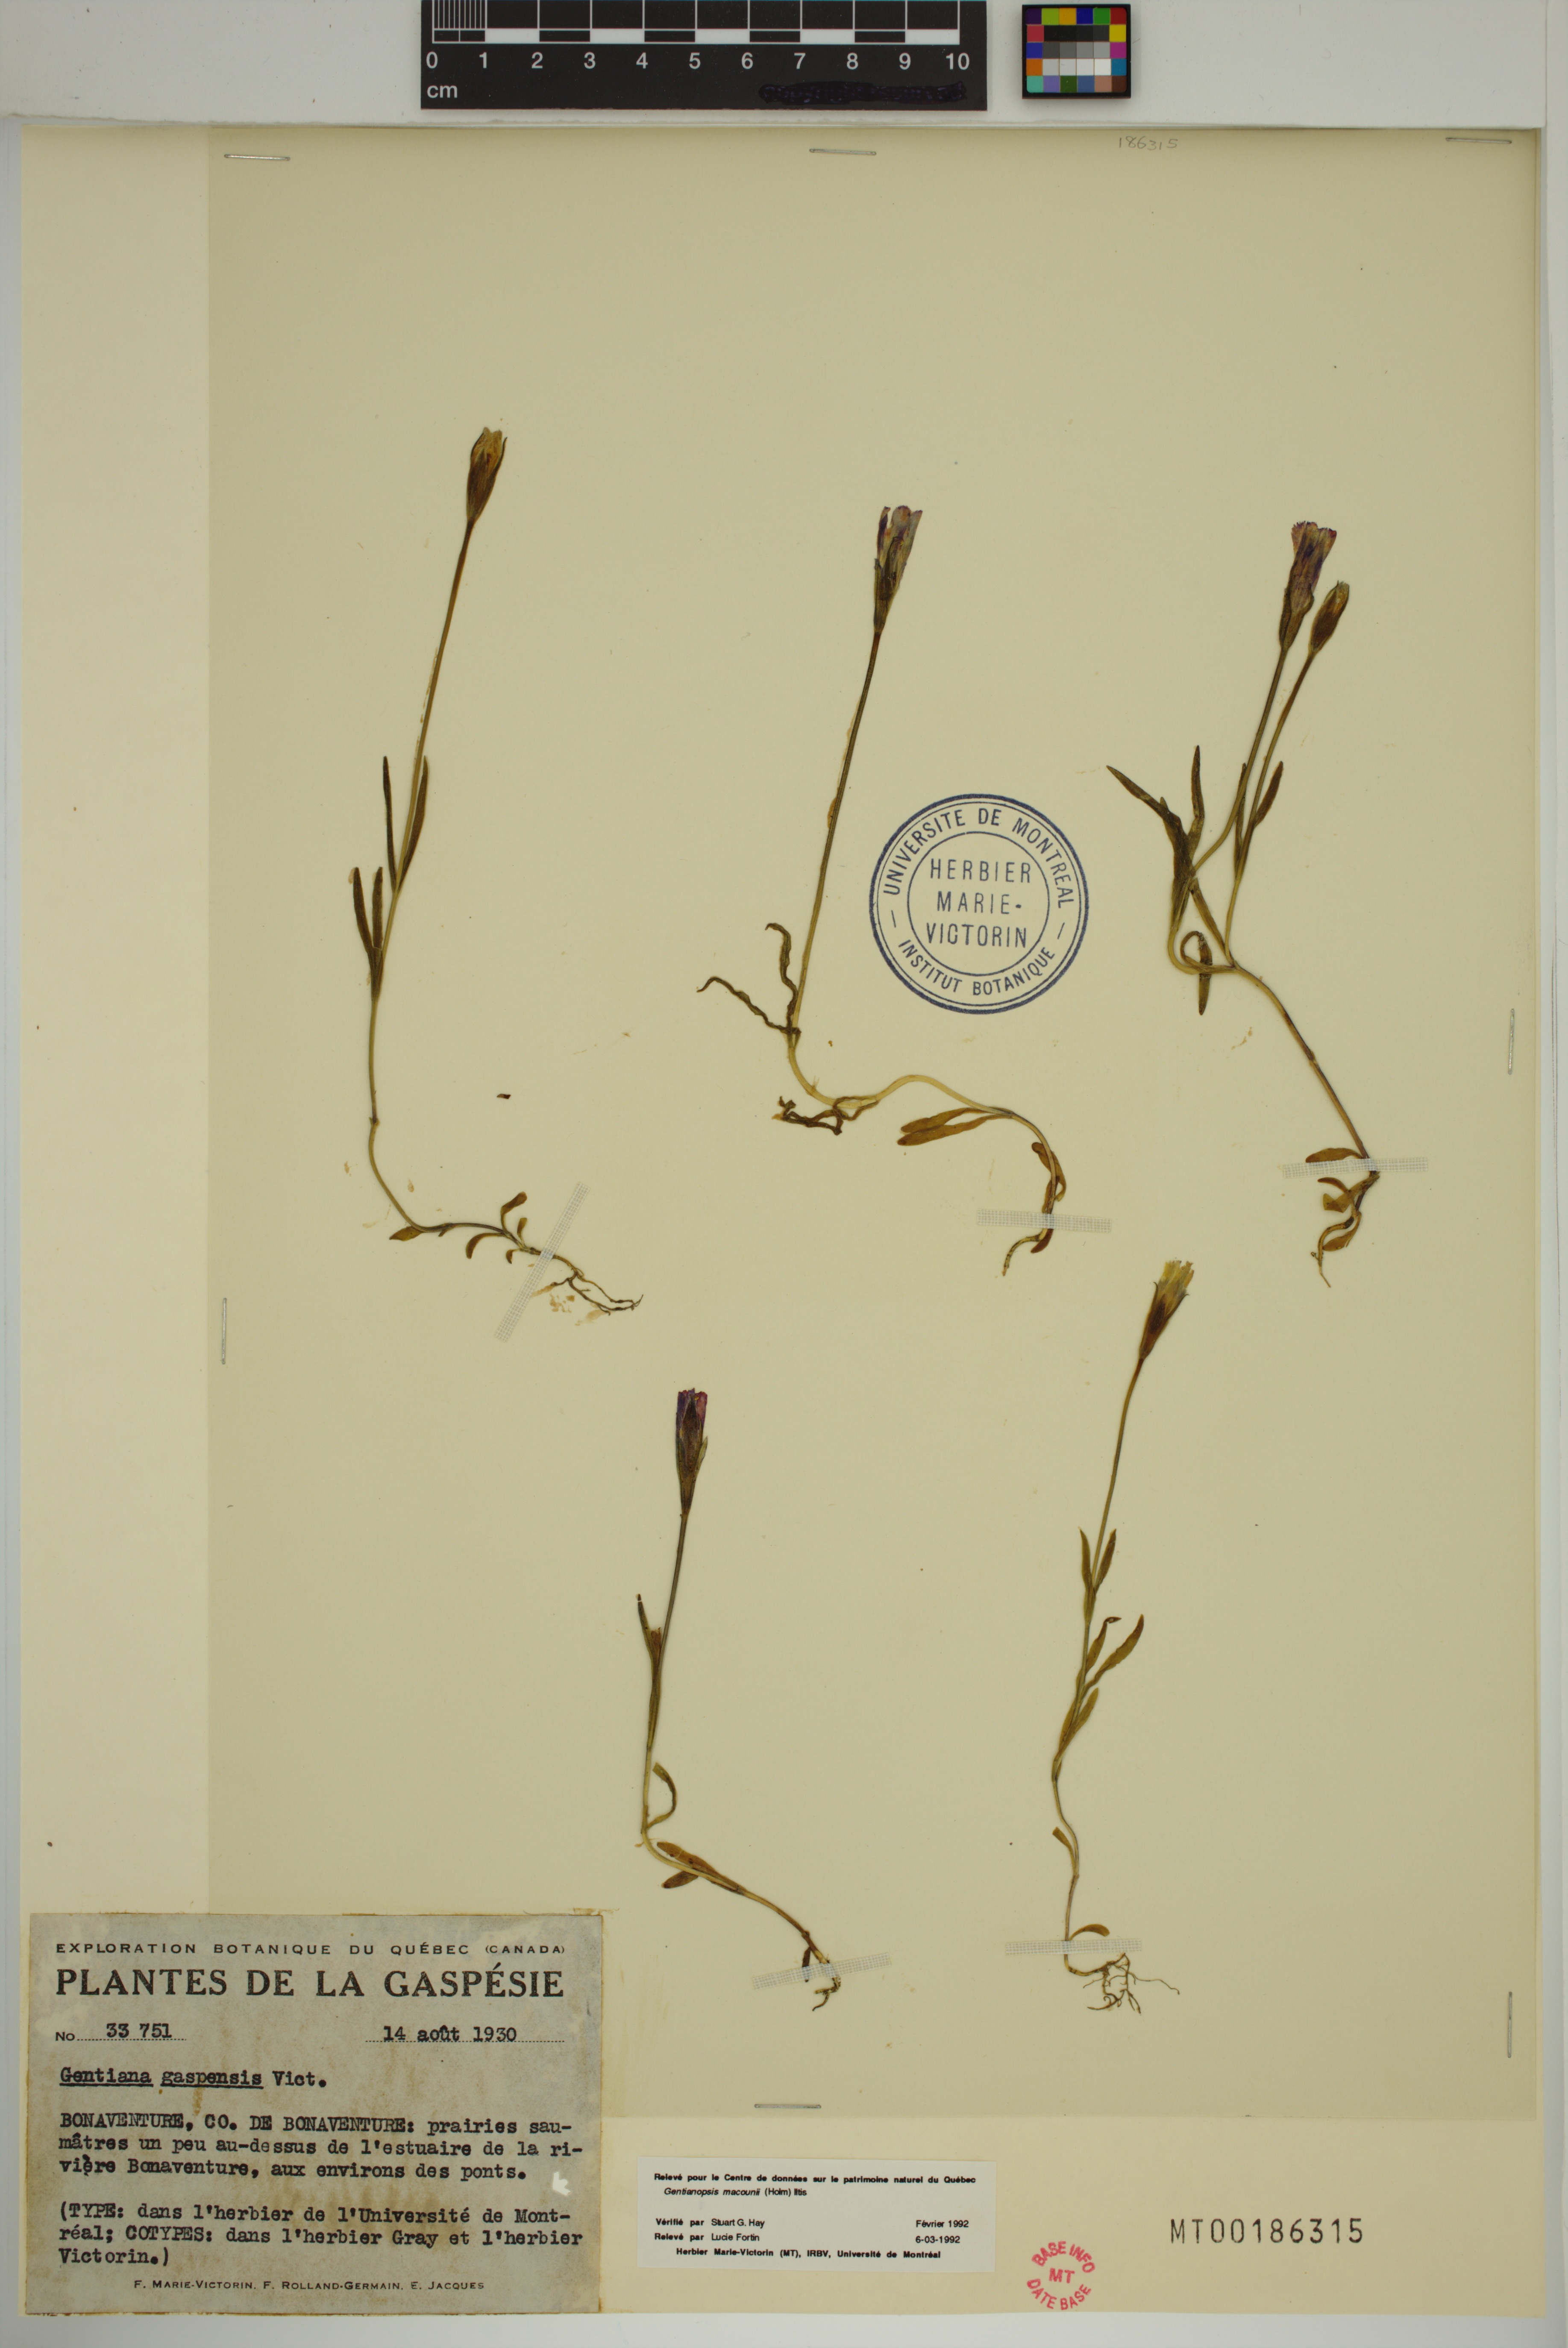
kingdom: Plantae
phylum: Tracheophyta
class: Magnoliopsida
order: Gentianales
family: Gentianaceae
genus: Gentianopsis
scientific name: Gentianopsis macounii
